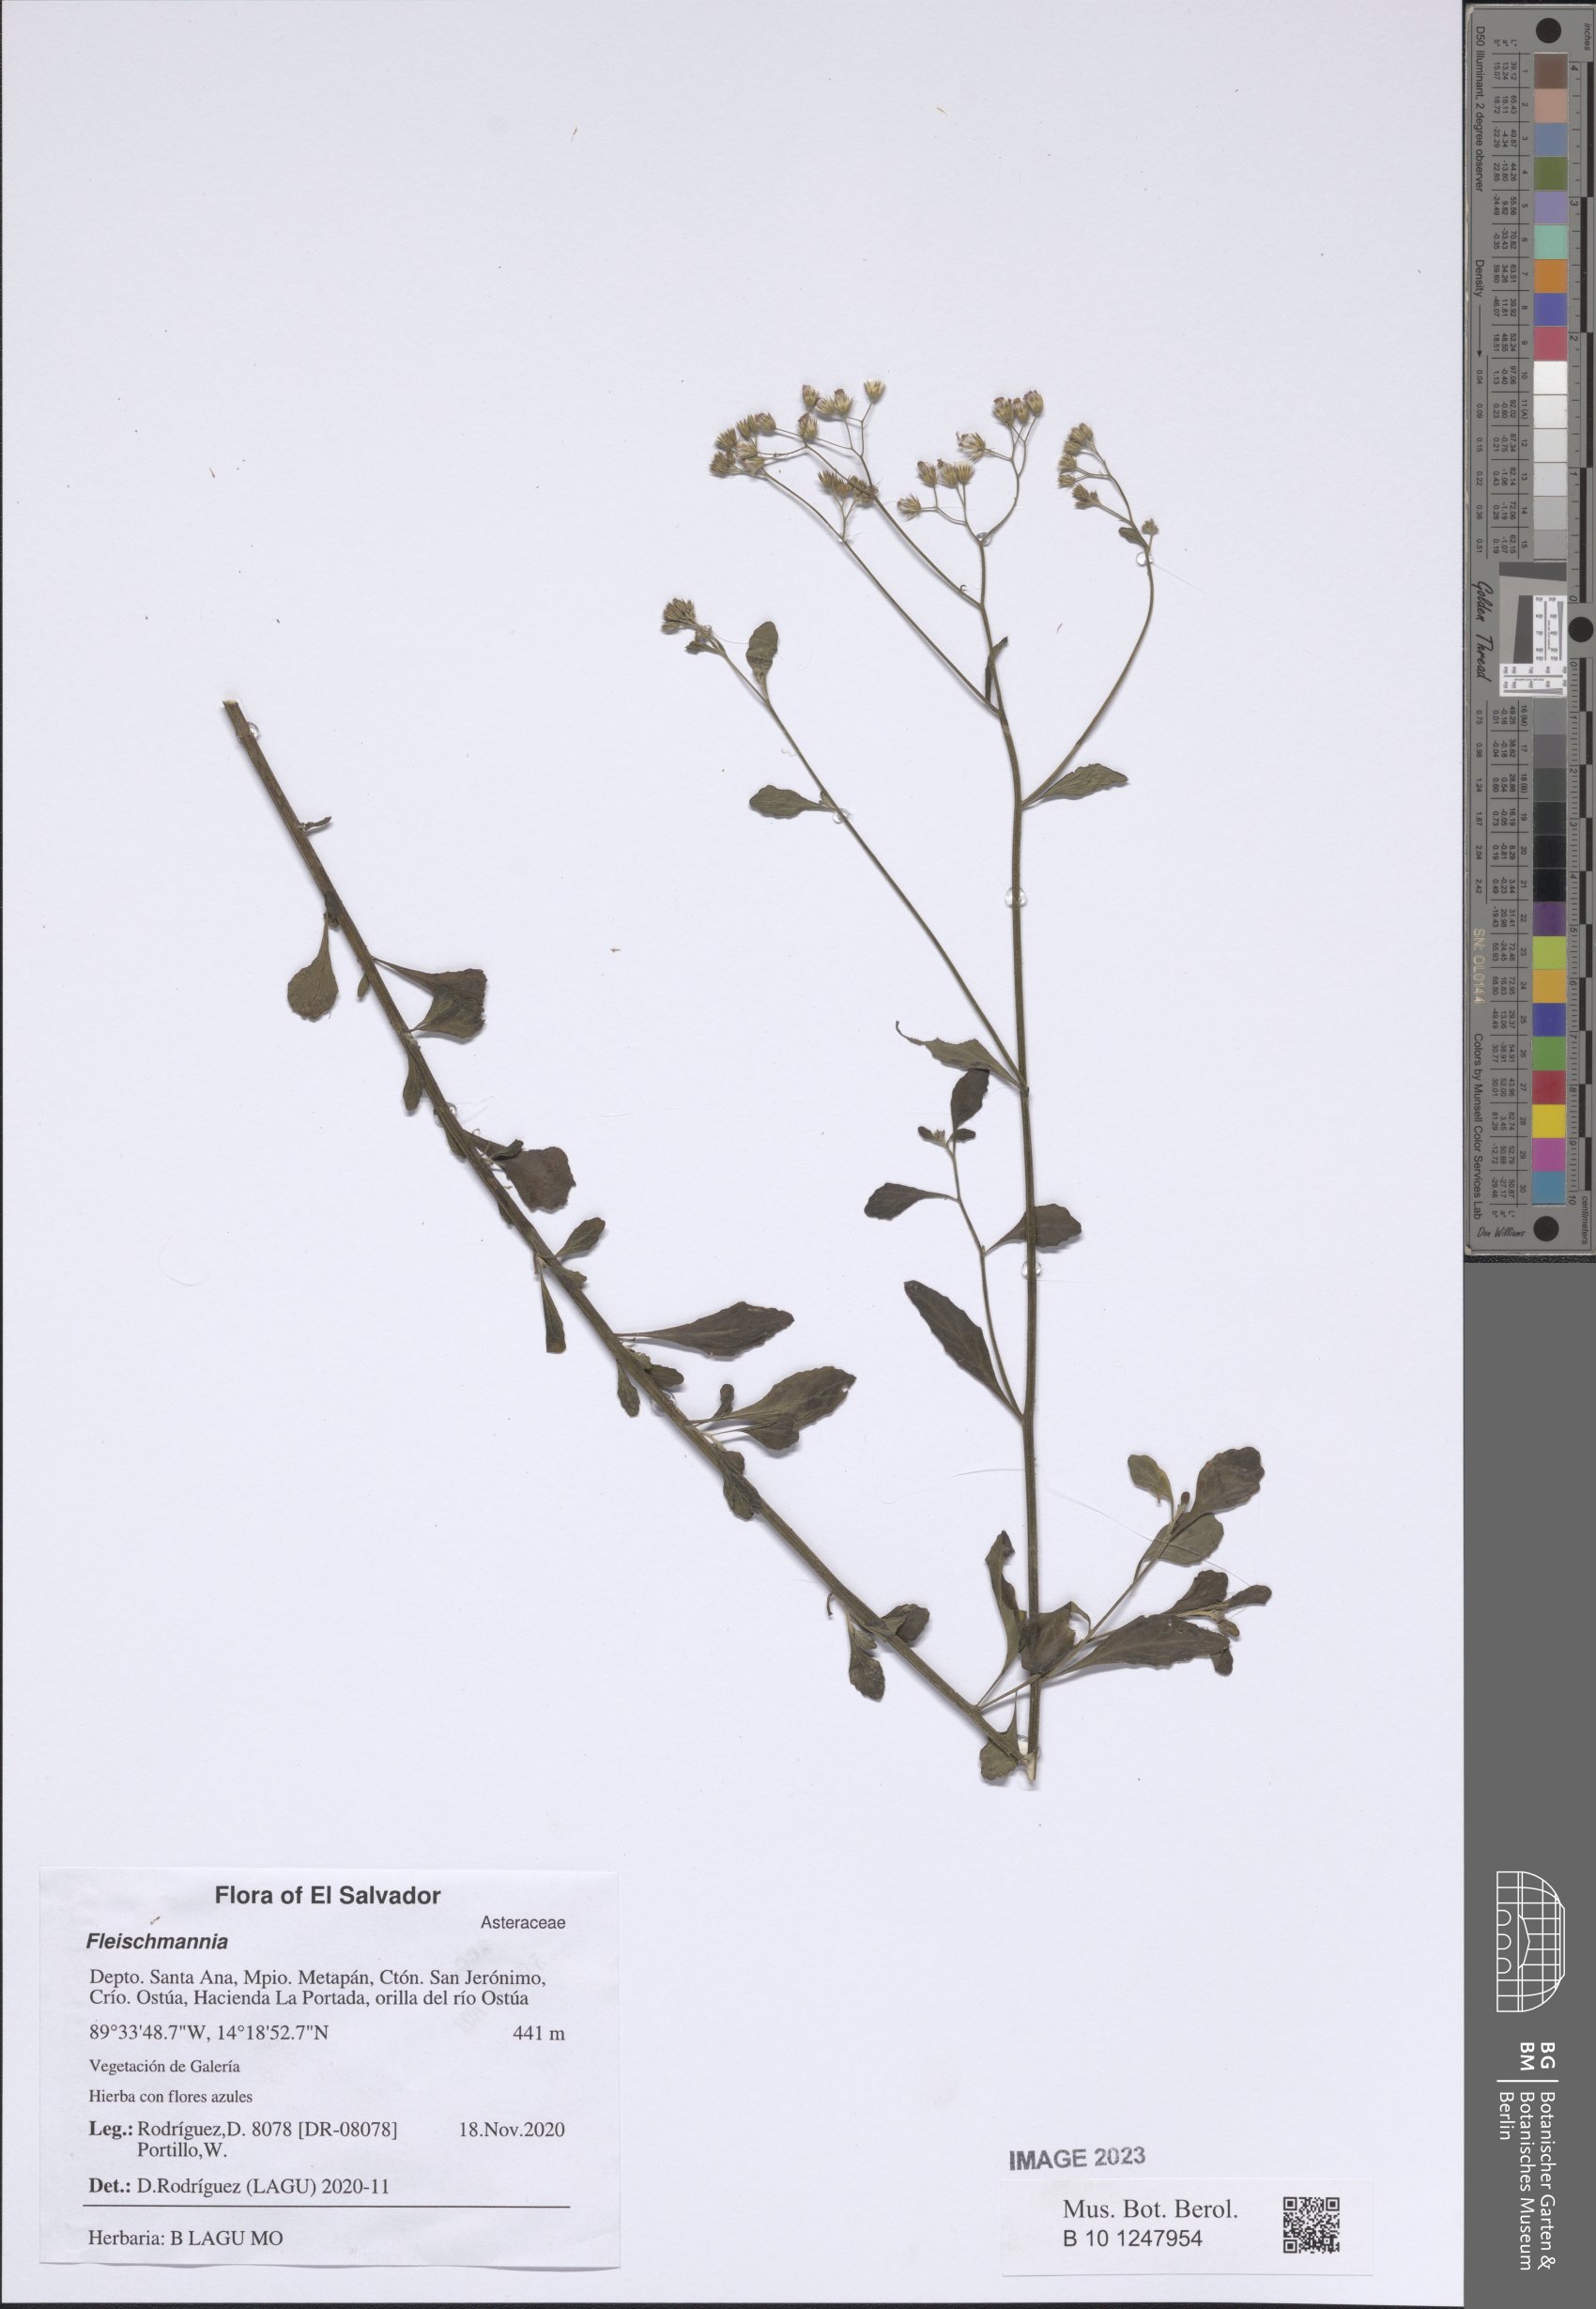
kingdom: Plantae
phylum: Tracheophyta
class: Magnoliopsida
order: Asterales
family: Asteraceae
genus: Fleischmannia
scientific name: Fleischmannia
